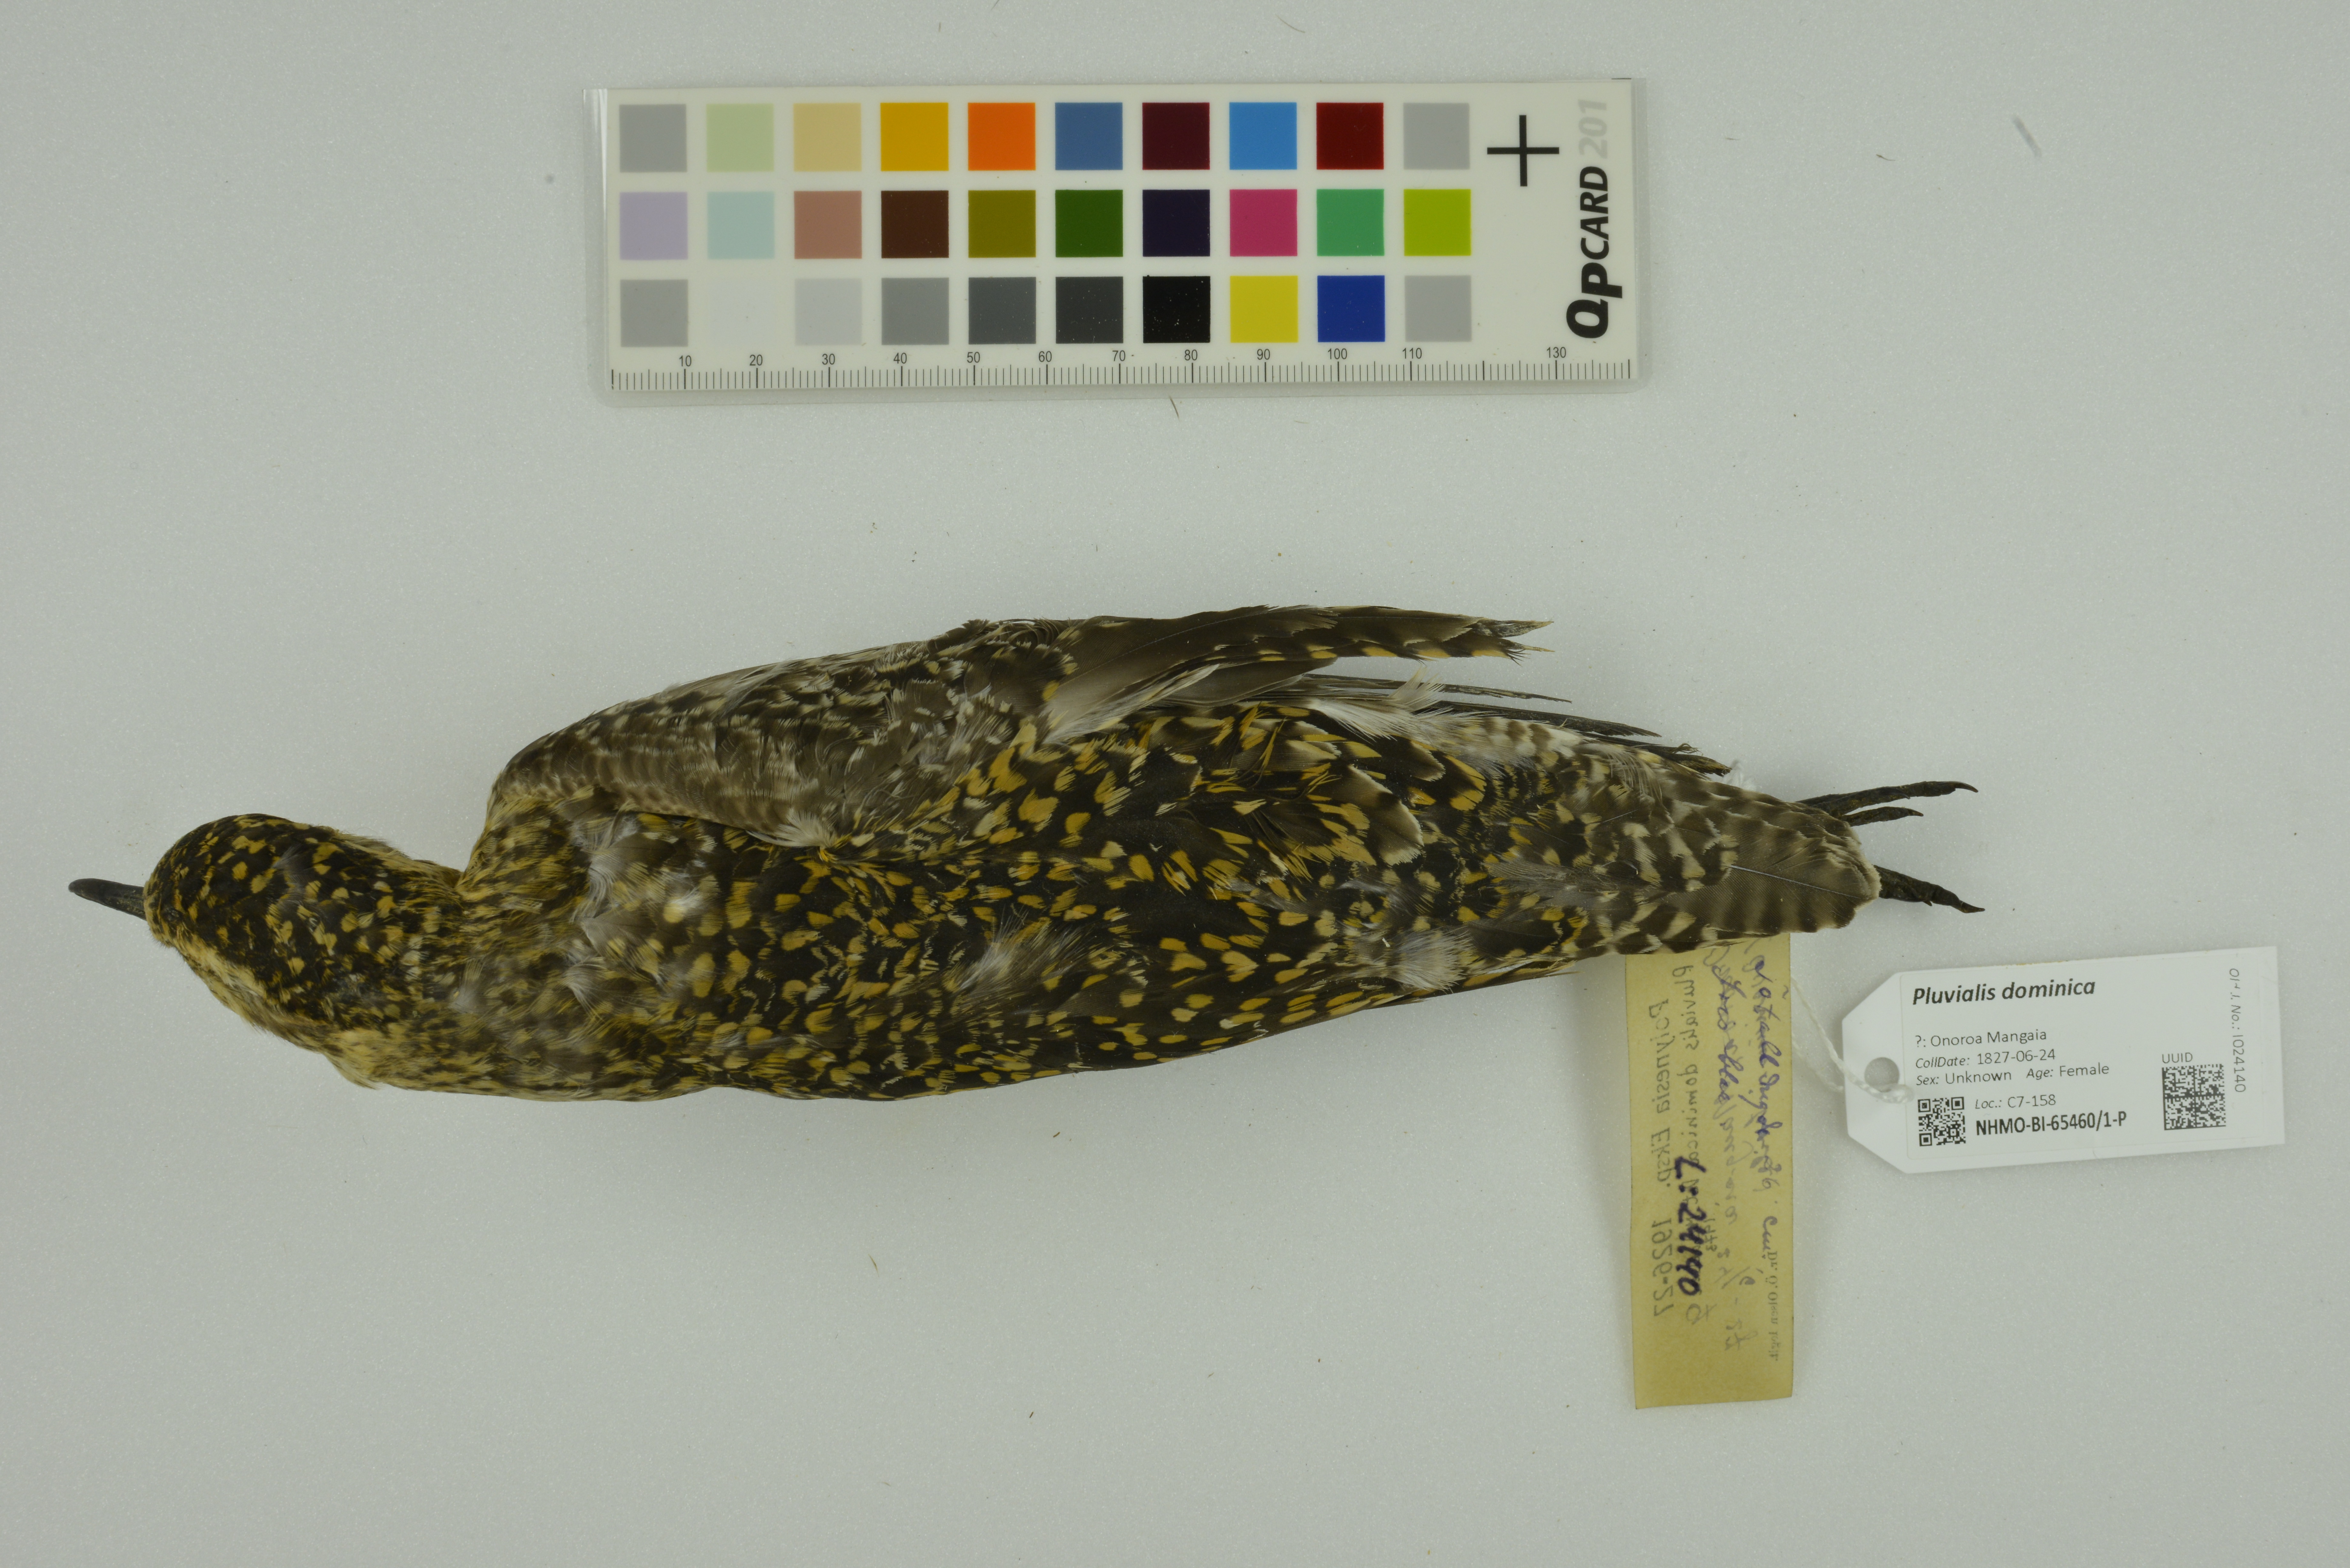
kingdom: Animalia
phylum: Chordata
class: Aves
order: Charadriiformes
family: Charadriidae
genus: Pluvialis
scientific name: Pluvialis dominica
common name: American golden plover
